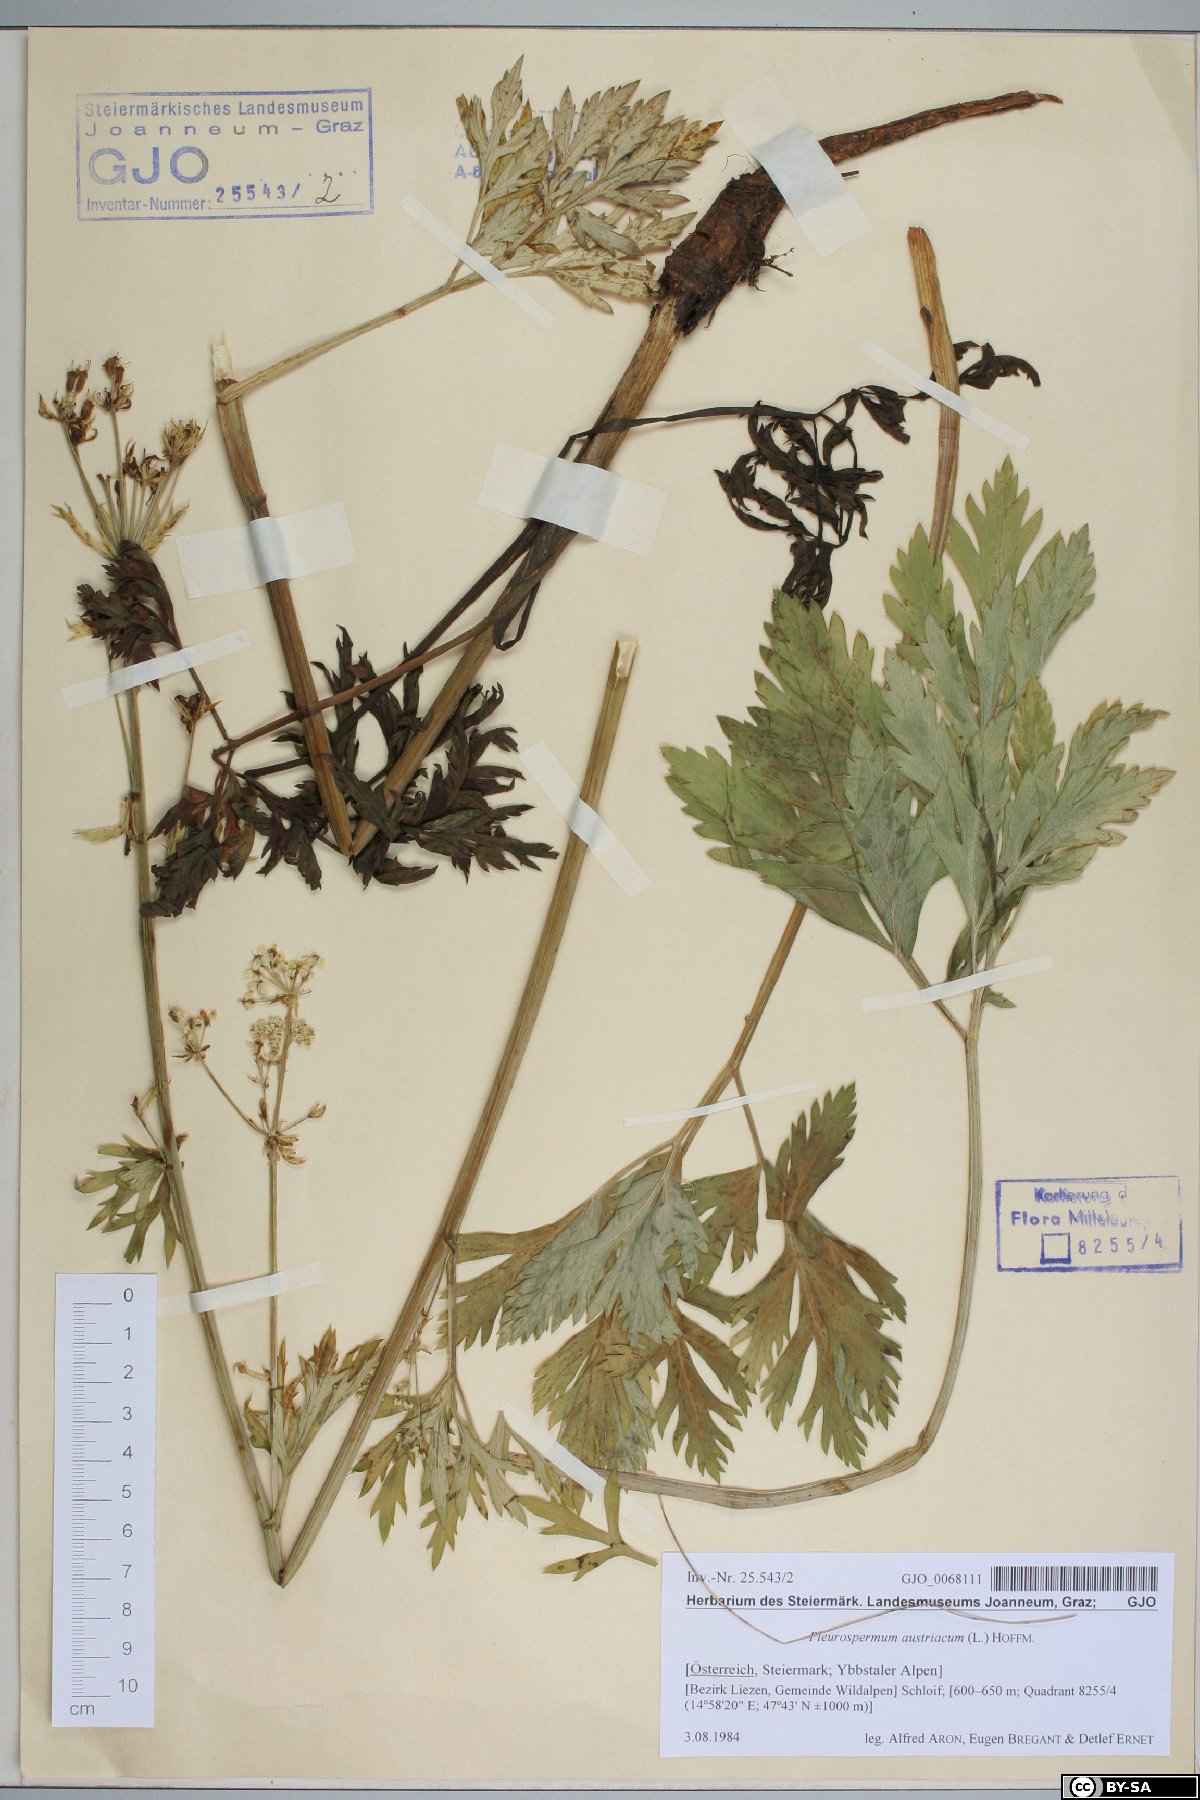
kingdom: Plantae
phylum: Tracheophyta
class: Magnoliopsida
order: Apiales
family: Apiaceae
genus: Pleurospermum
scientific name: Pleurospermum austriacum
